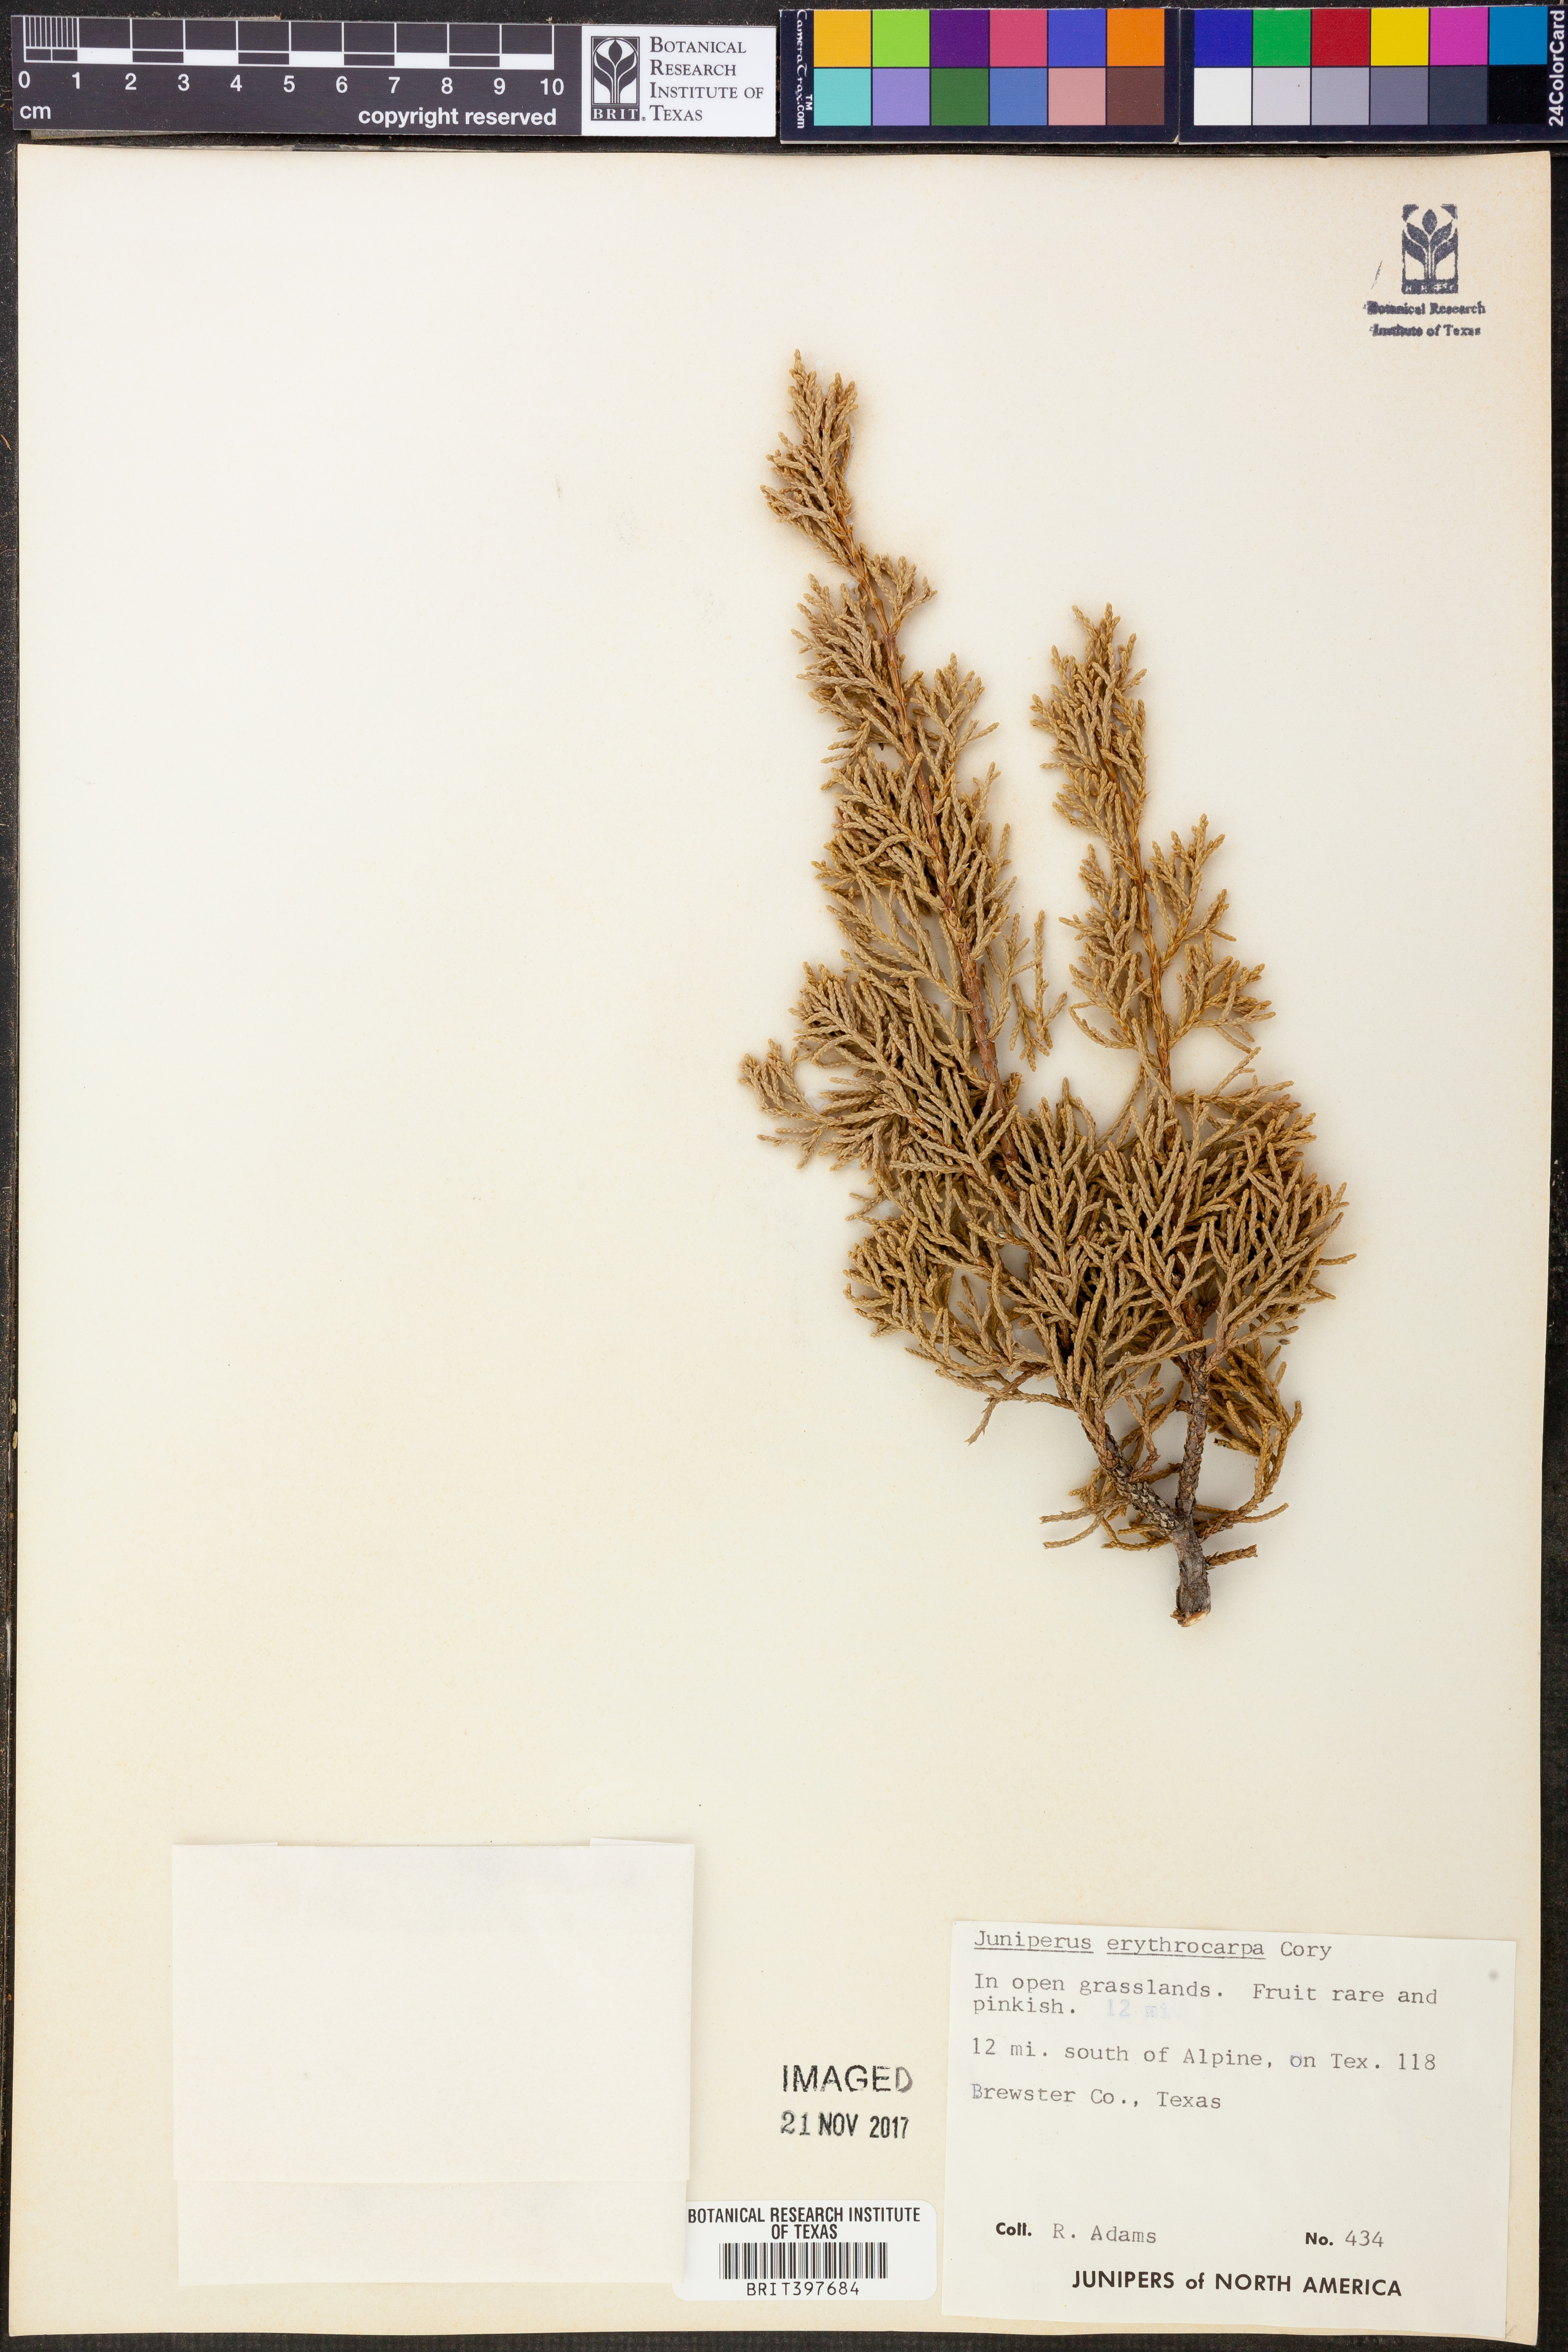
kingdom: Plantae
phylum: Tracheophyta
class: Pinopsida
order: Pinales
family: Cupressaceae
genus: Juniperus
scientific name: Juniperus pinchotii
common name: Pinchot juniper
